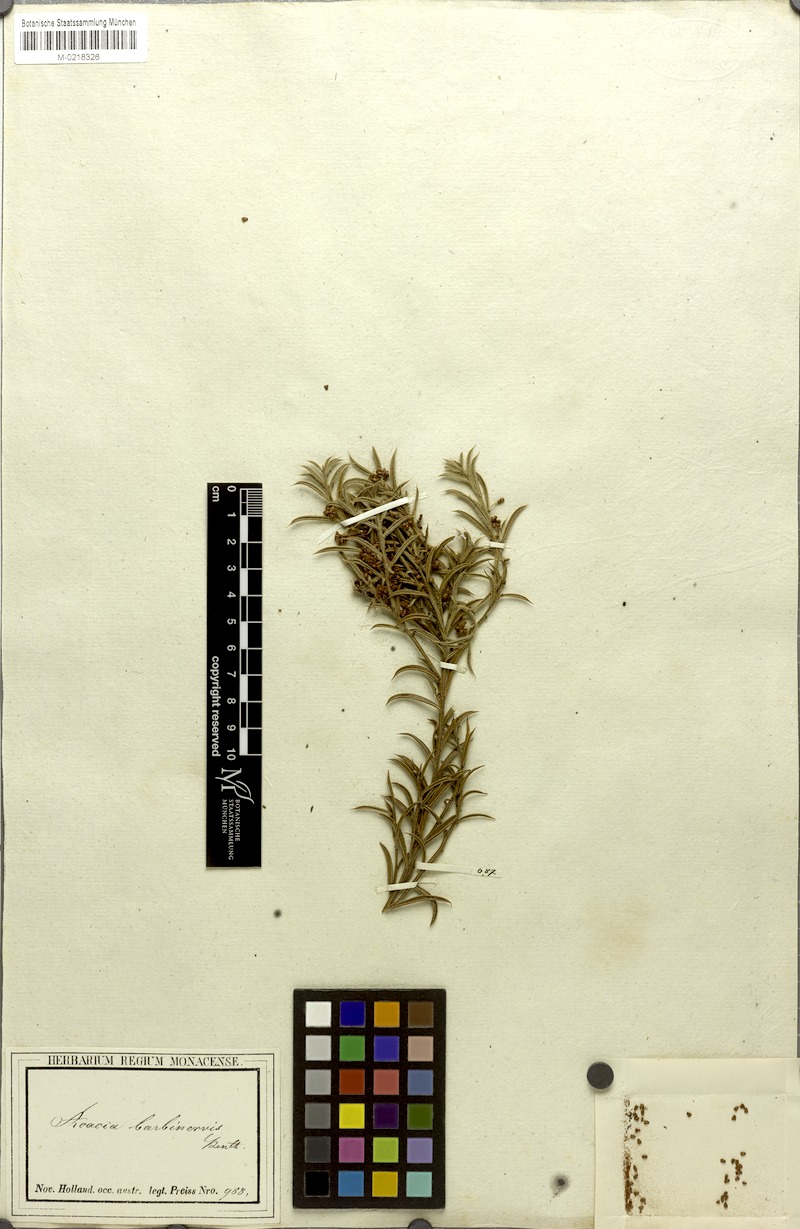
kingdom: Plantae
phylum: Tracheophyta
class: Magnoliopsida
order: Fabales
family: Fabaceae
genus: Acacia
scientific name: Acacia barbinervis
